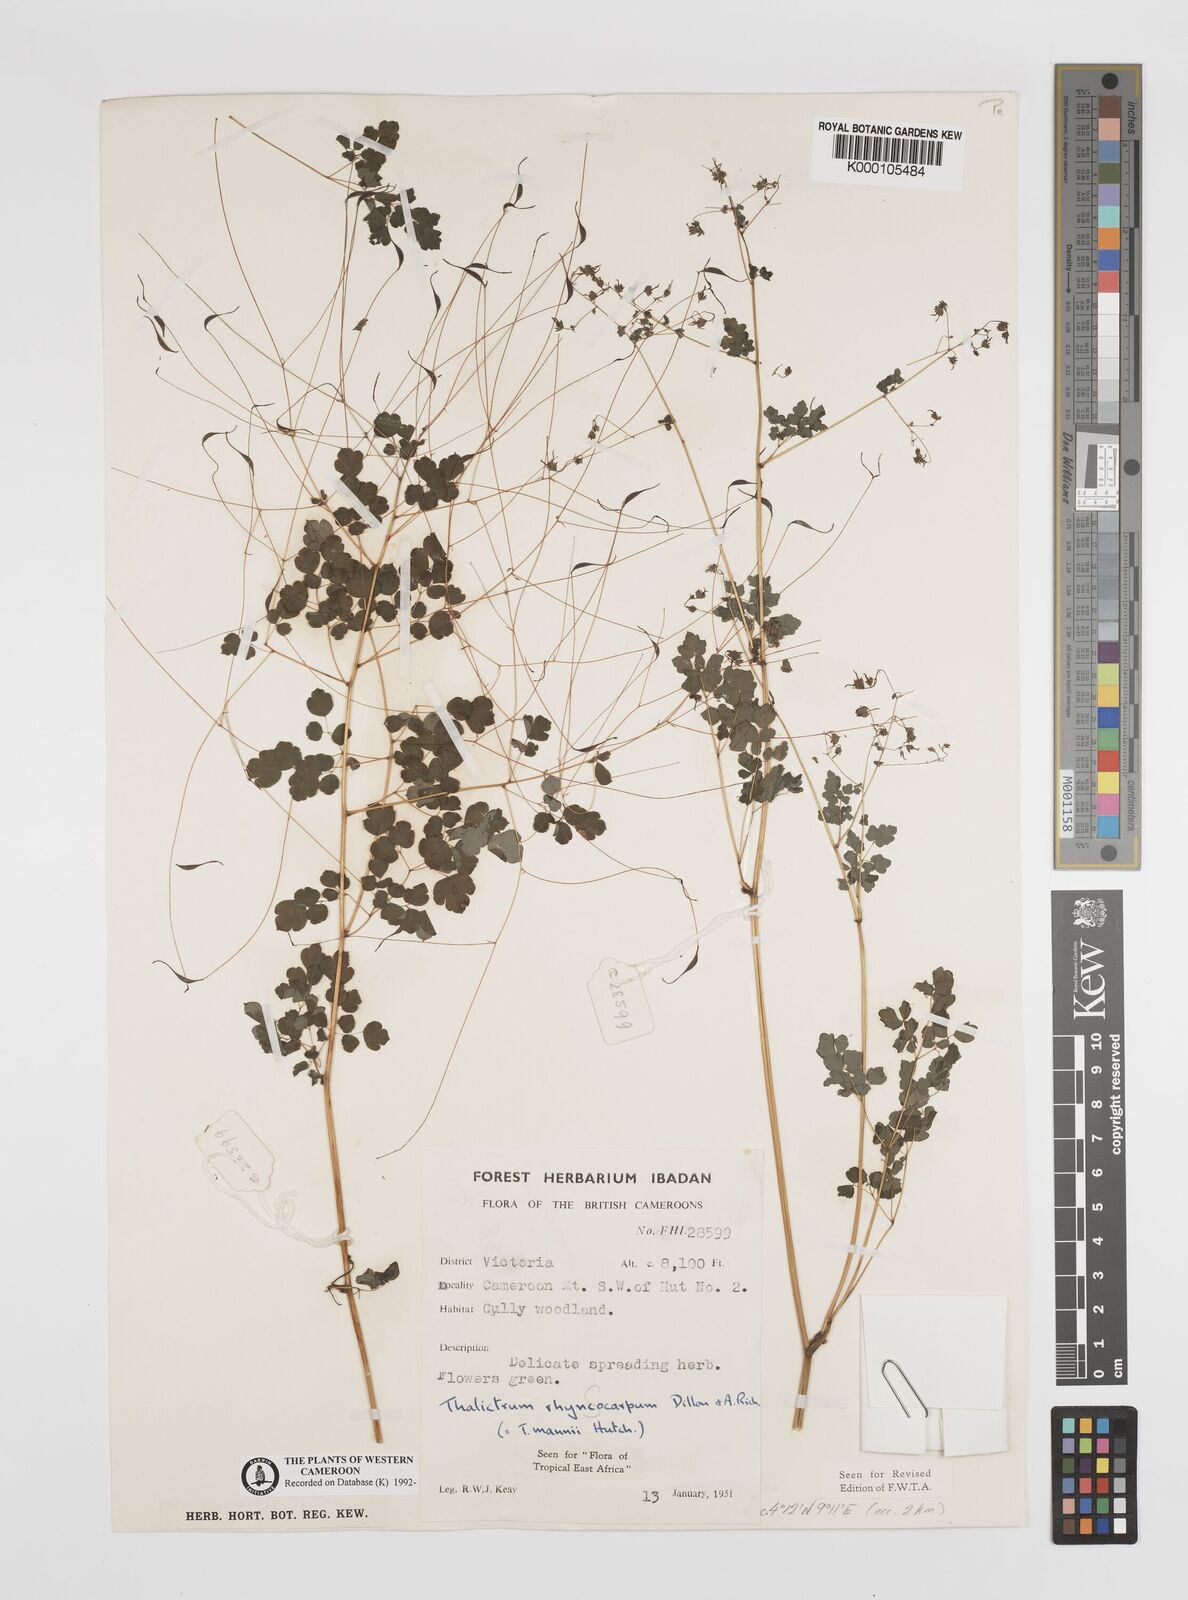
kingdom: Plantae
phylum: Tracheophyta
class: Magnoliopsida
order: Ranunculales
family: Ranunculaceae
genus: Thalictrum
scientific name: Thalictrum
